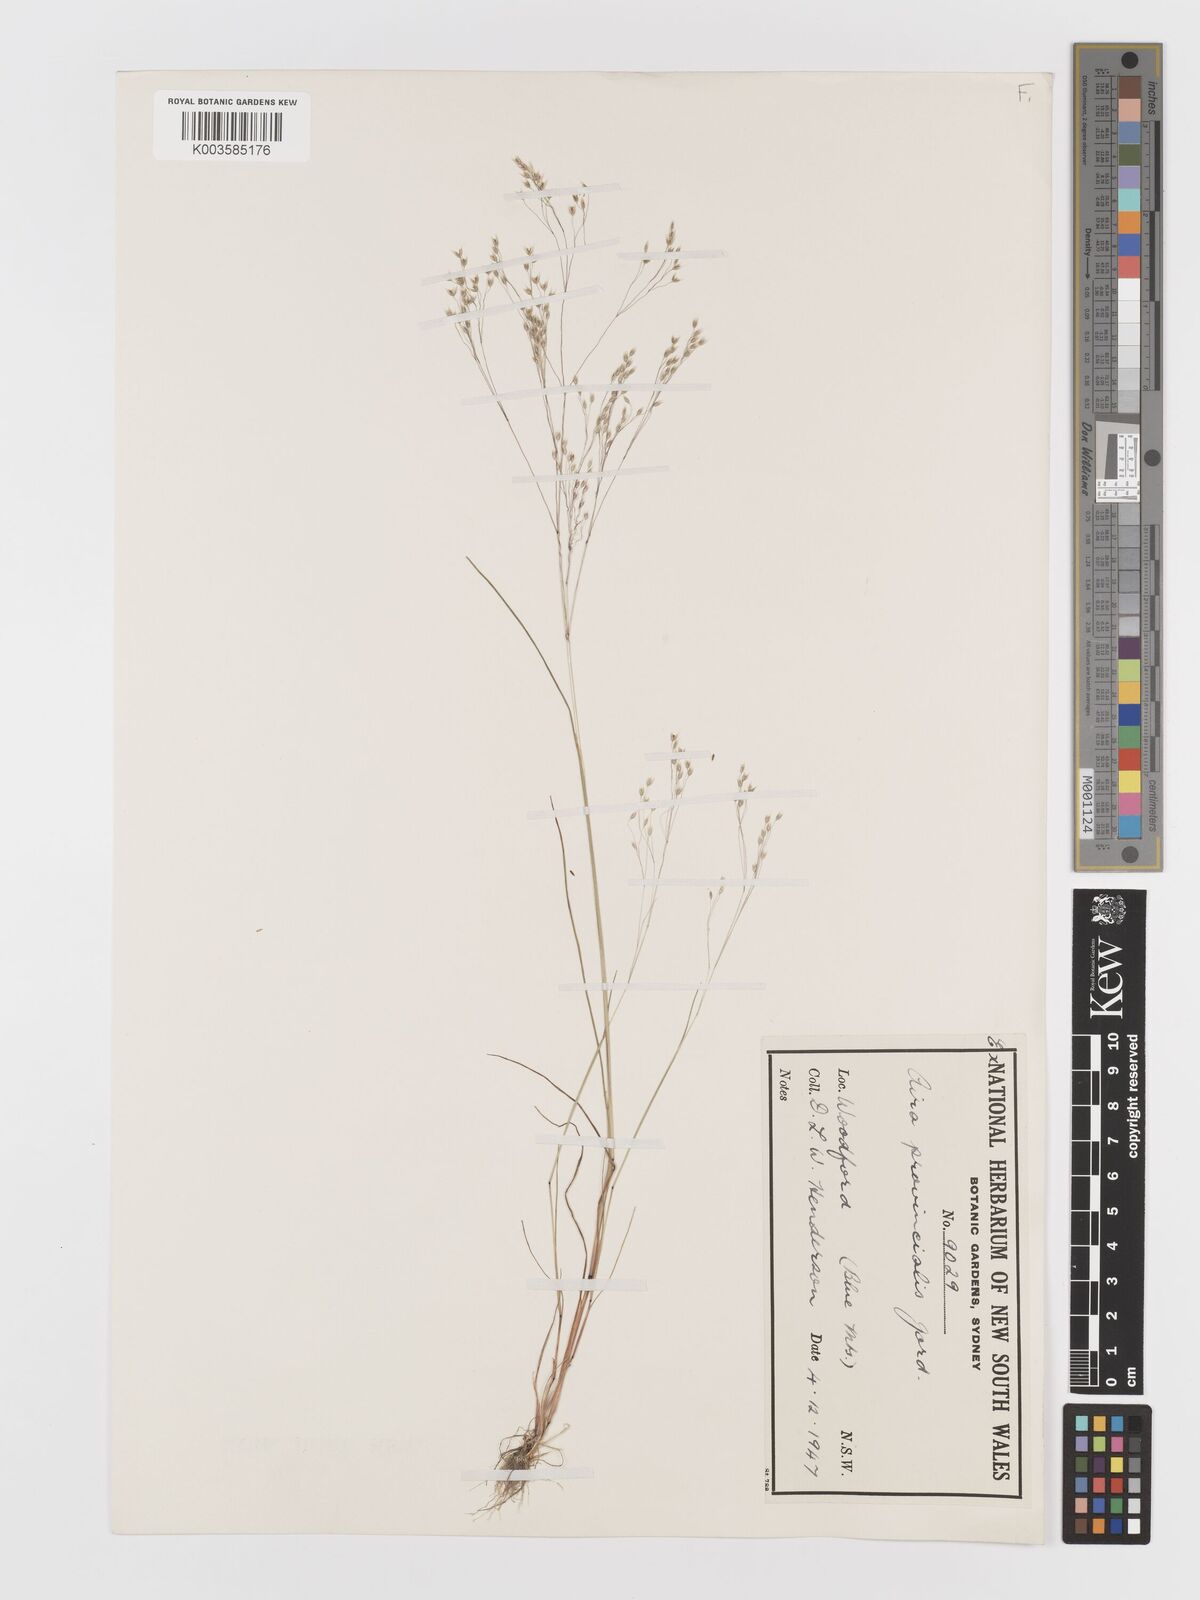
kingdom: Plantae
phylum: Tracheophyta
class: Liliopsida
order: Poales
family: Poaceae
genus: Aira
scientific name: Aira provincialis
